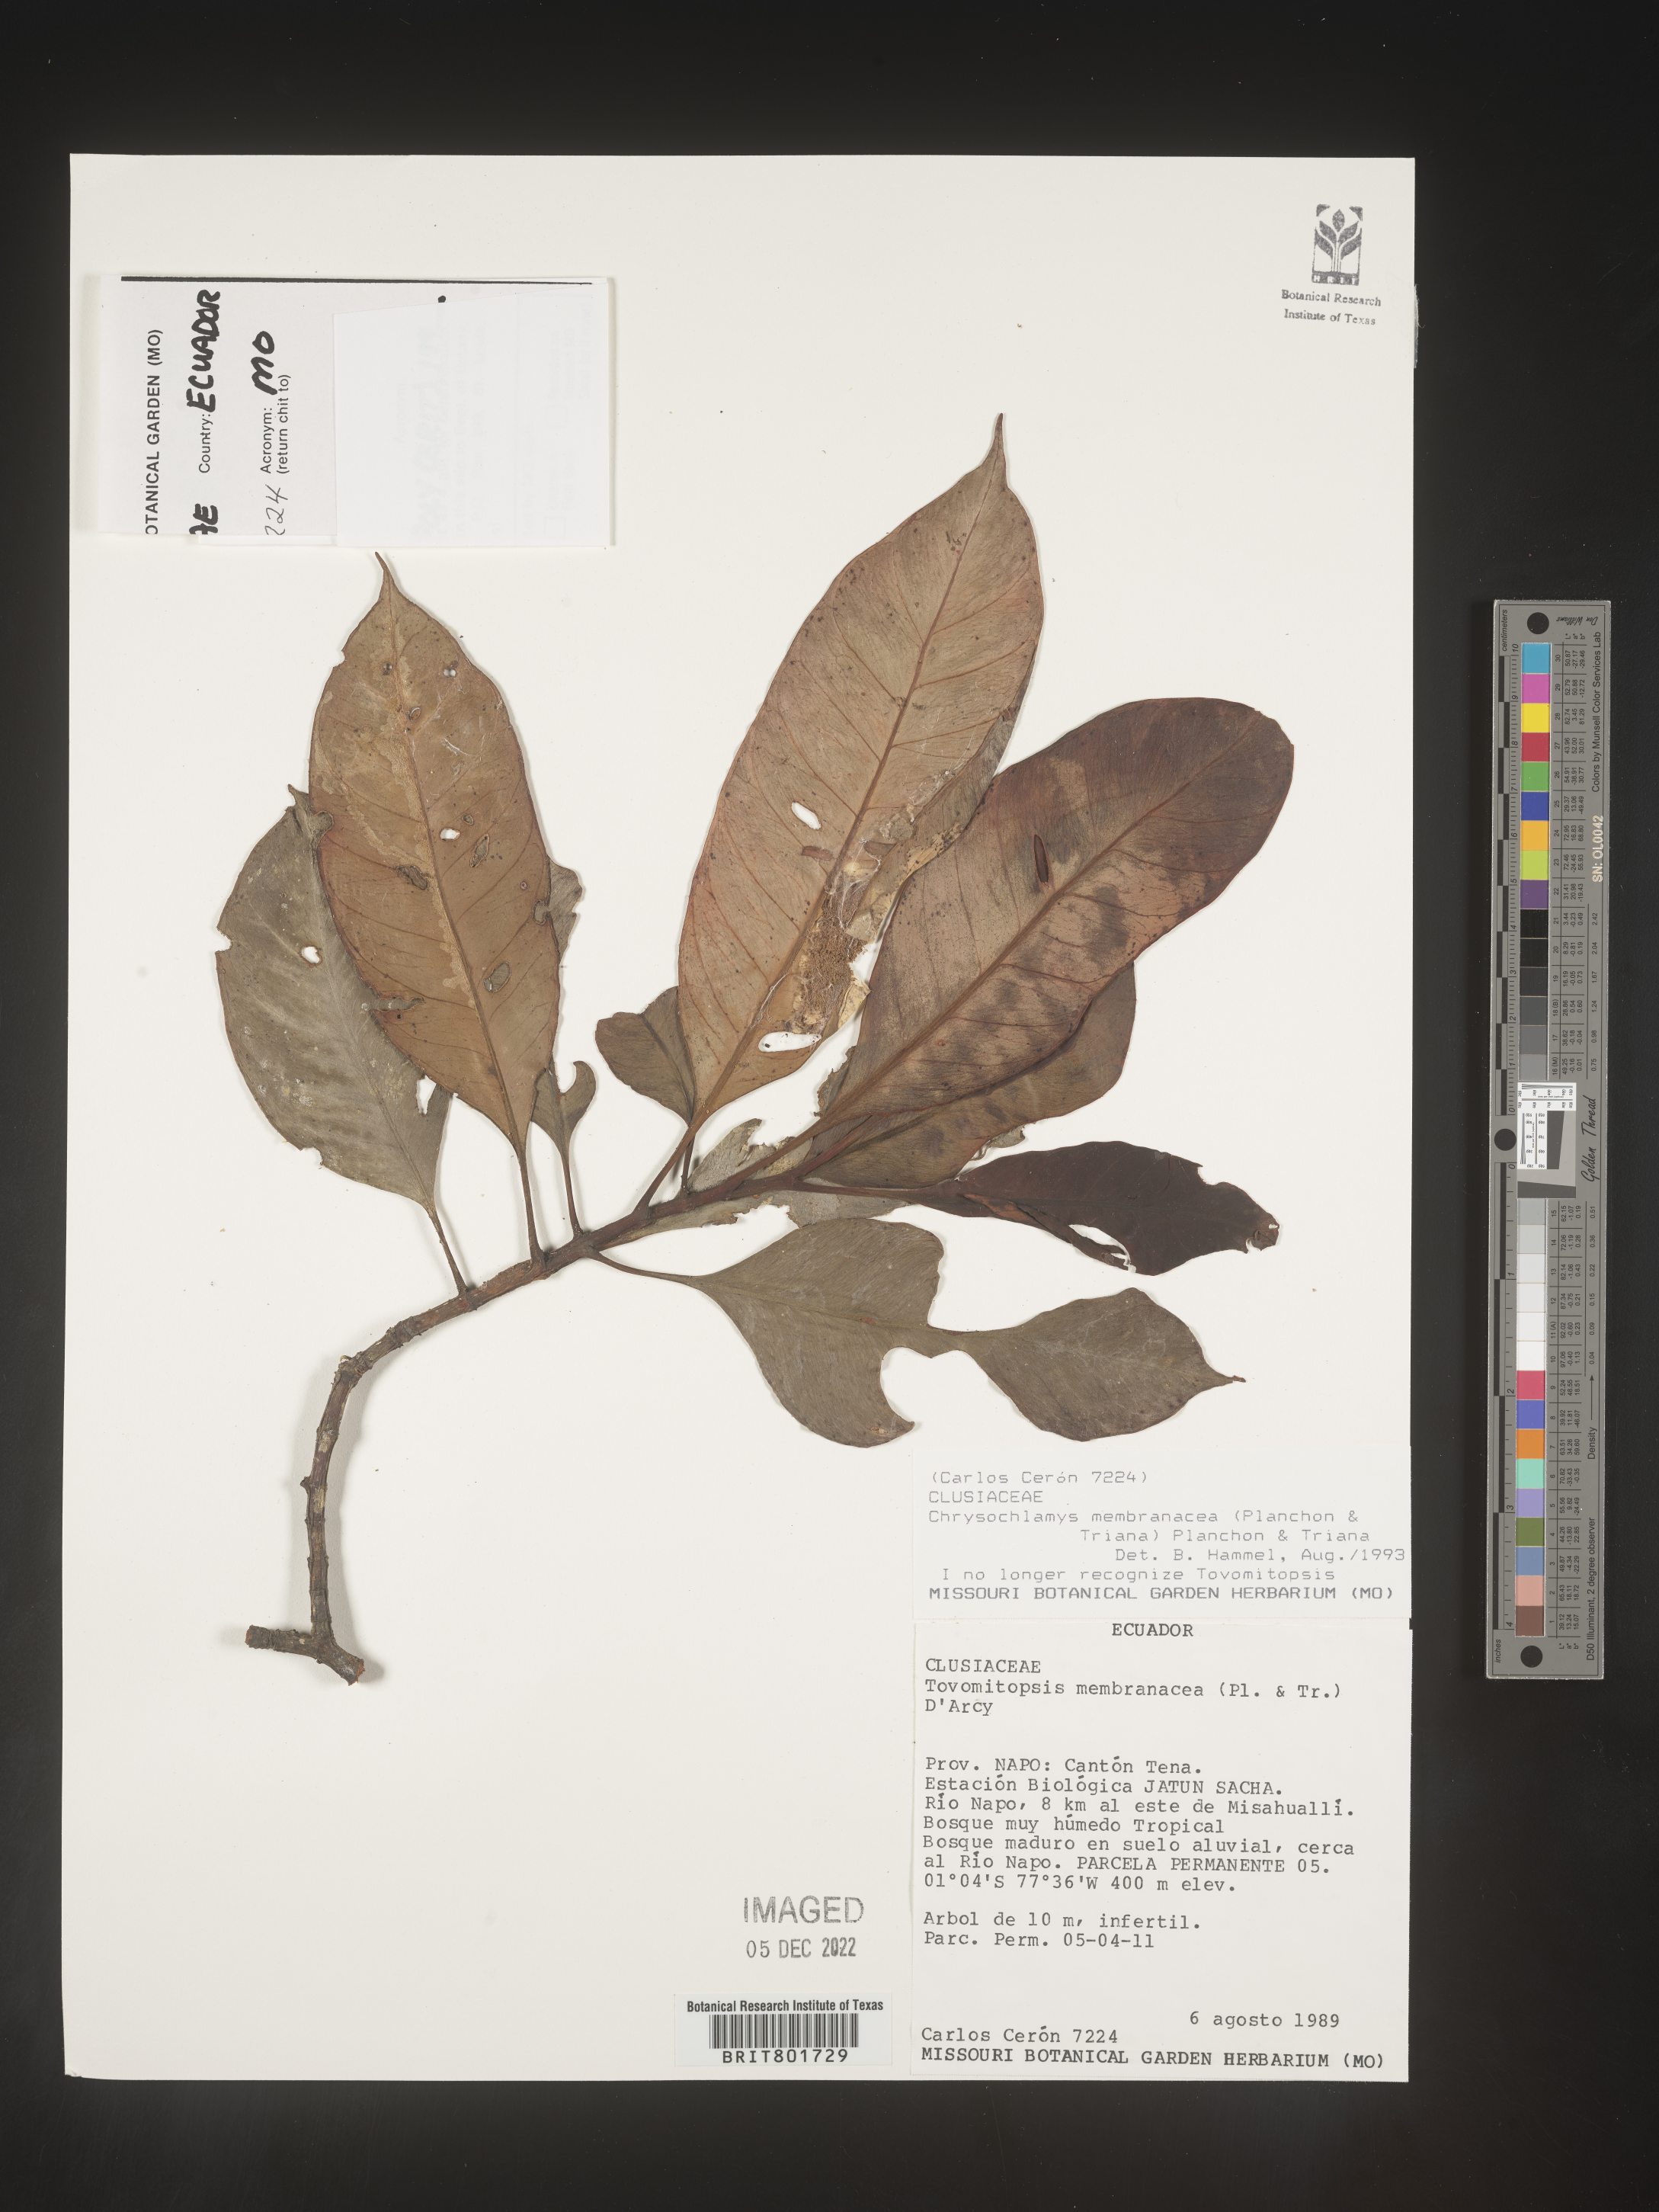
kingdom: Plantae
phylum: Tracheophyta
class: Magnoliopsida
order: Malpighiales
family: Clusiaceae
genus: Chrysochlamys
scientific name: Chrysochlamys membranacea
